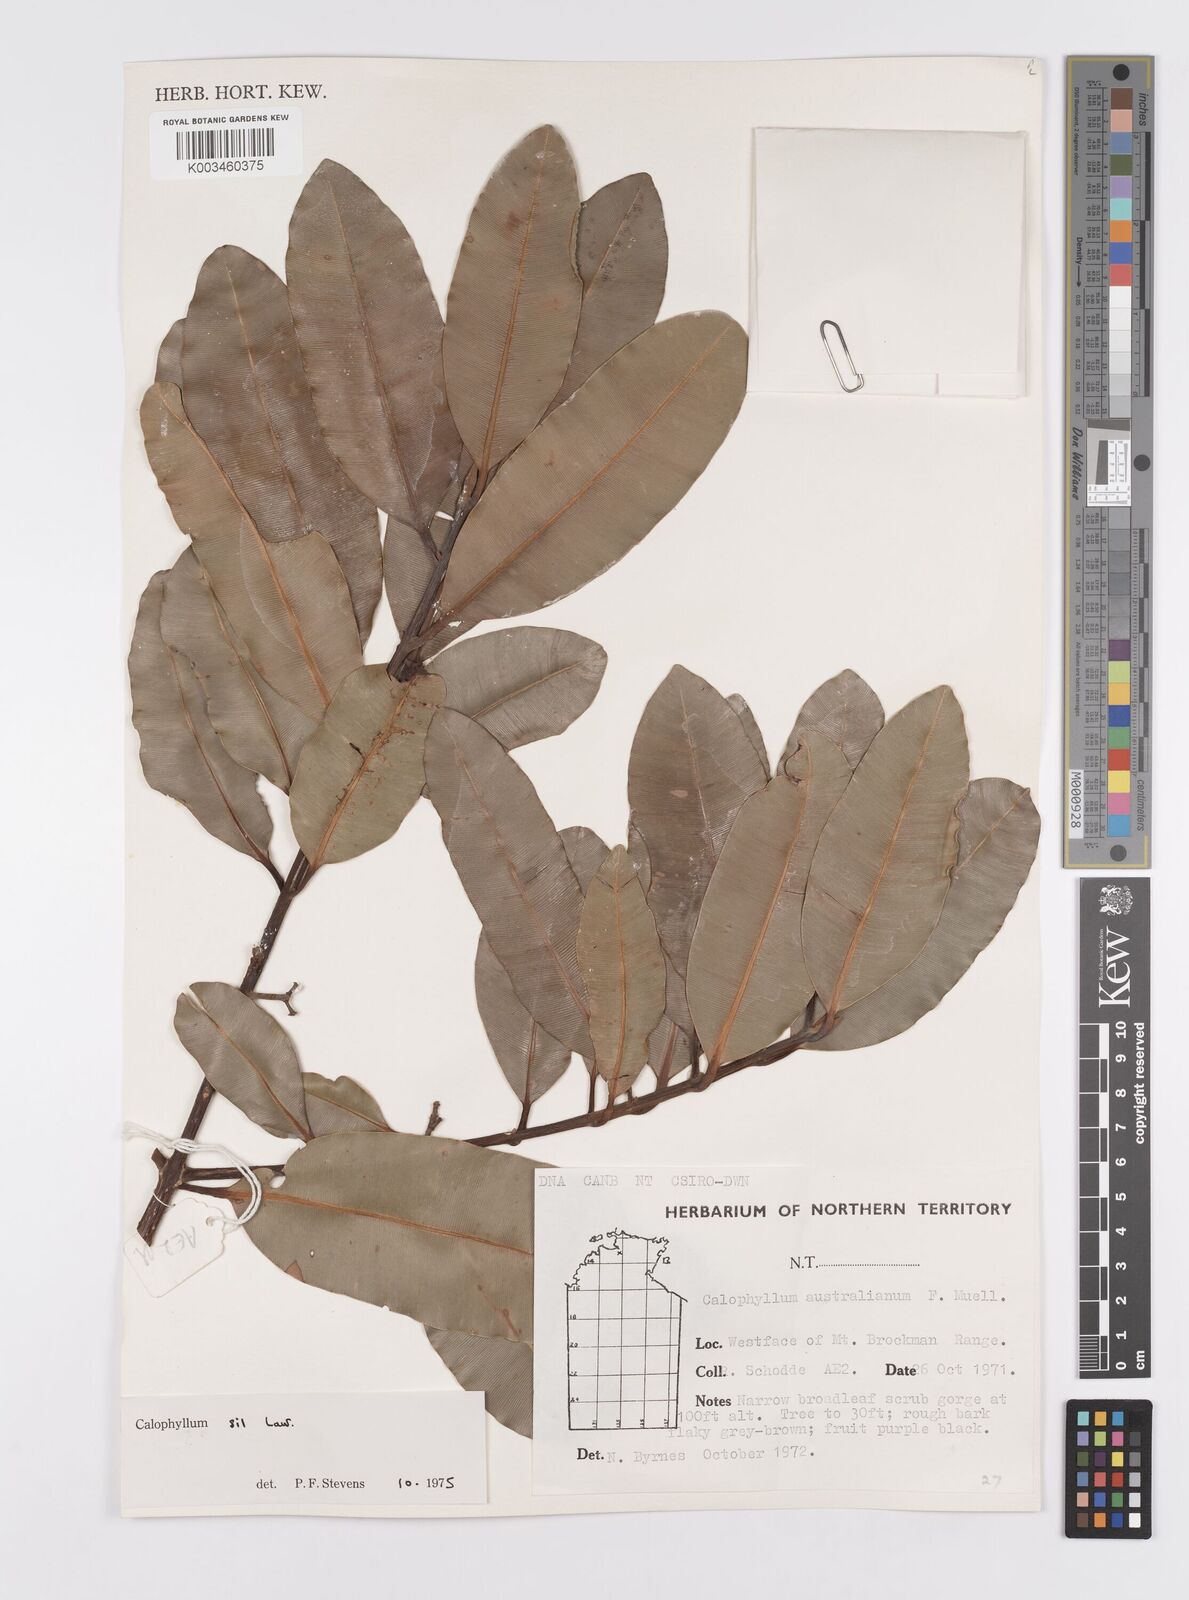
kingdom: Plantae
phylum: Tracheophyta
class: Magnoliopsida
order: Malpighiales
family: Calophyllaceae
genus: Calophyllum
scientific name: Calophyllum sil
